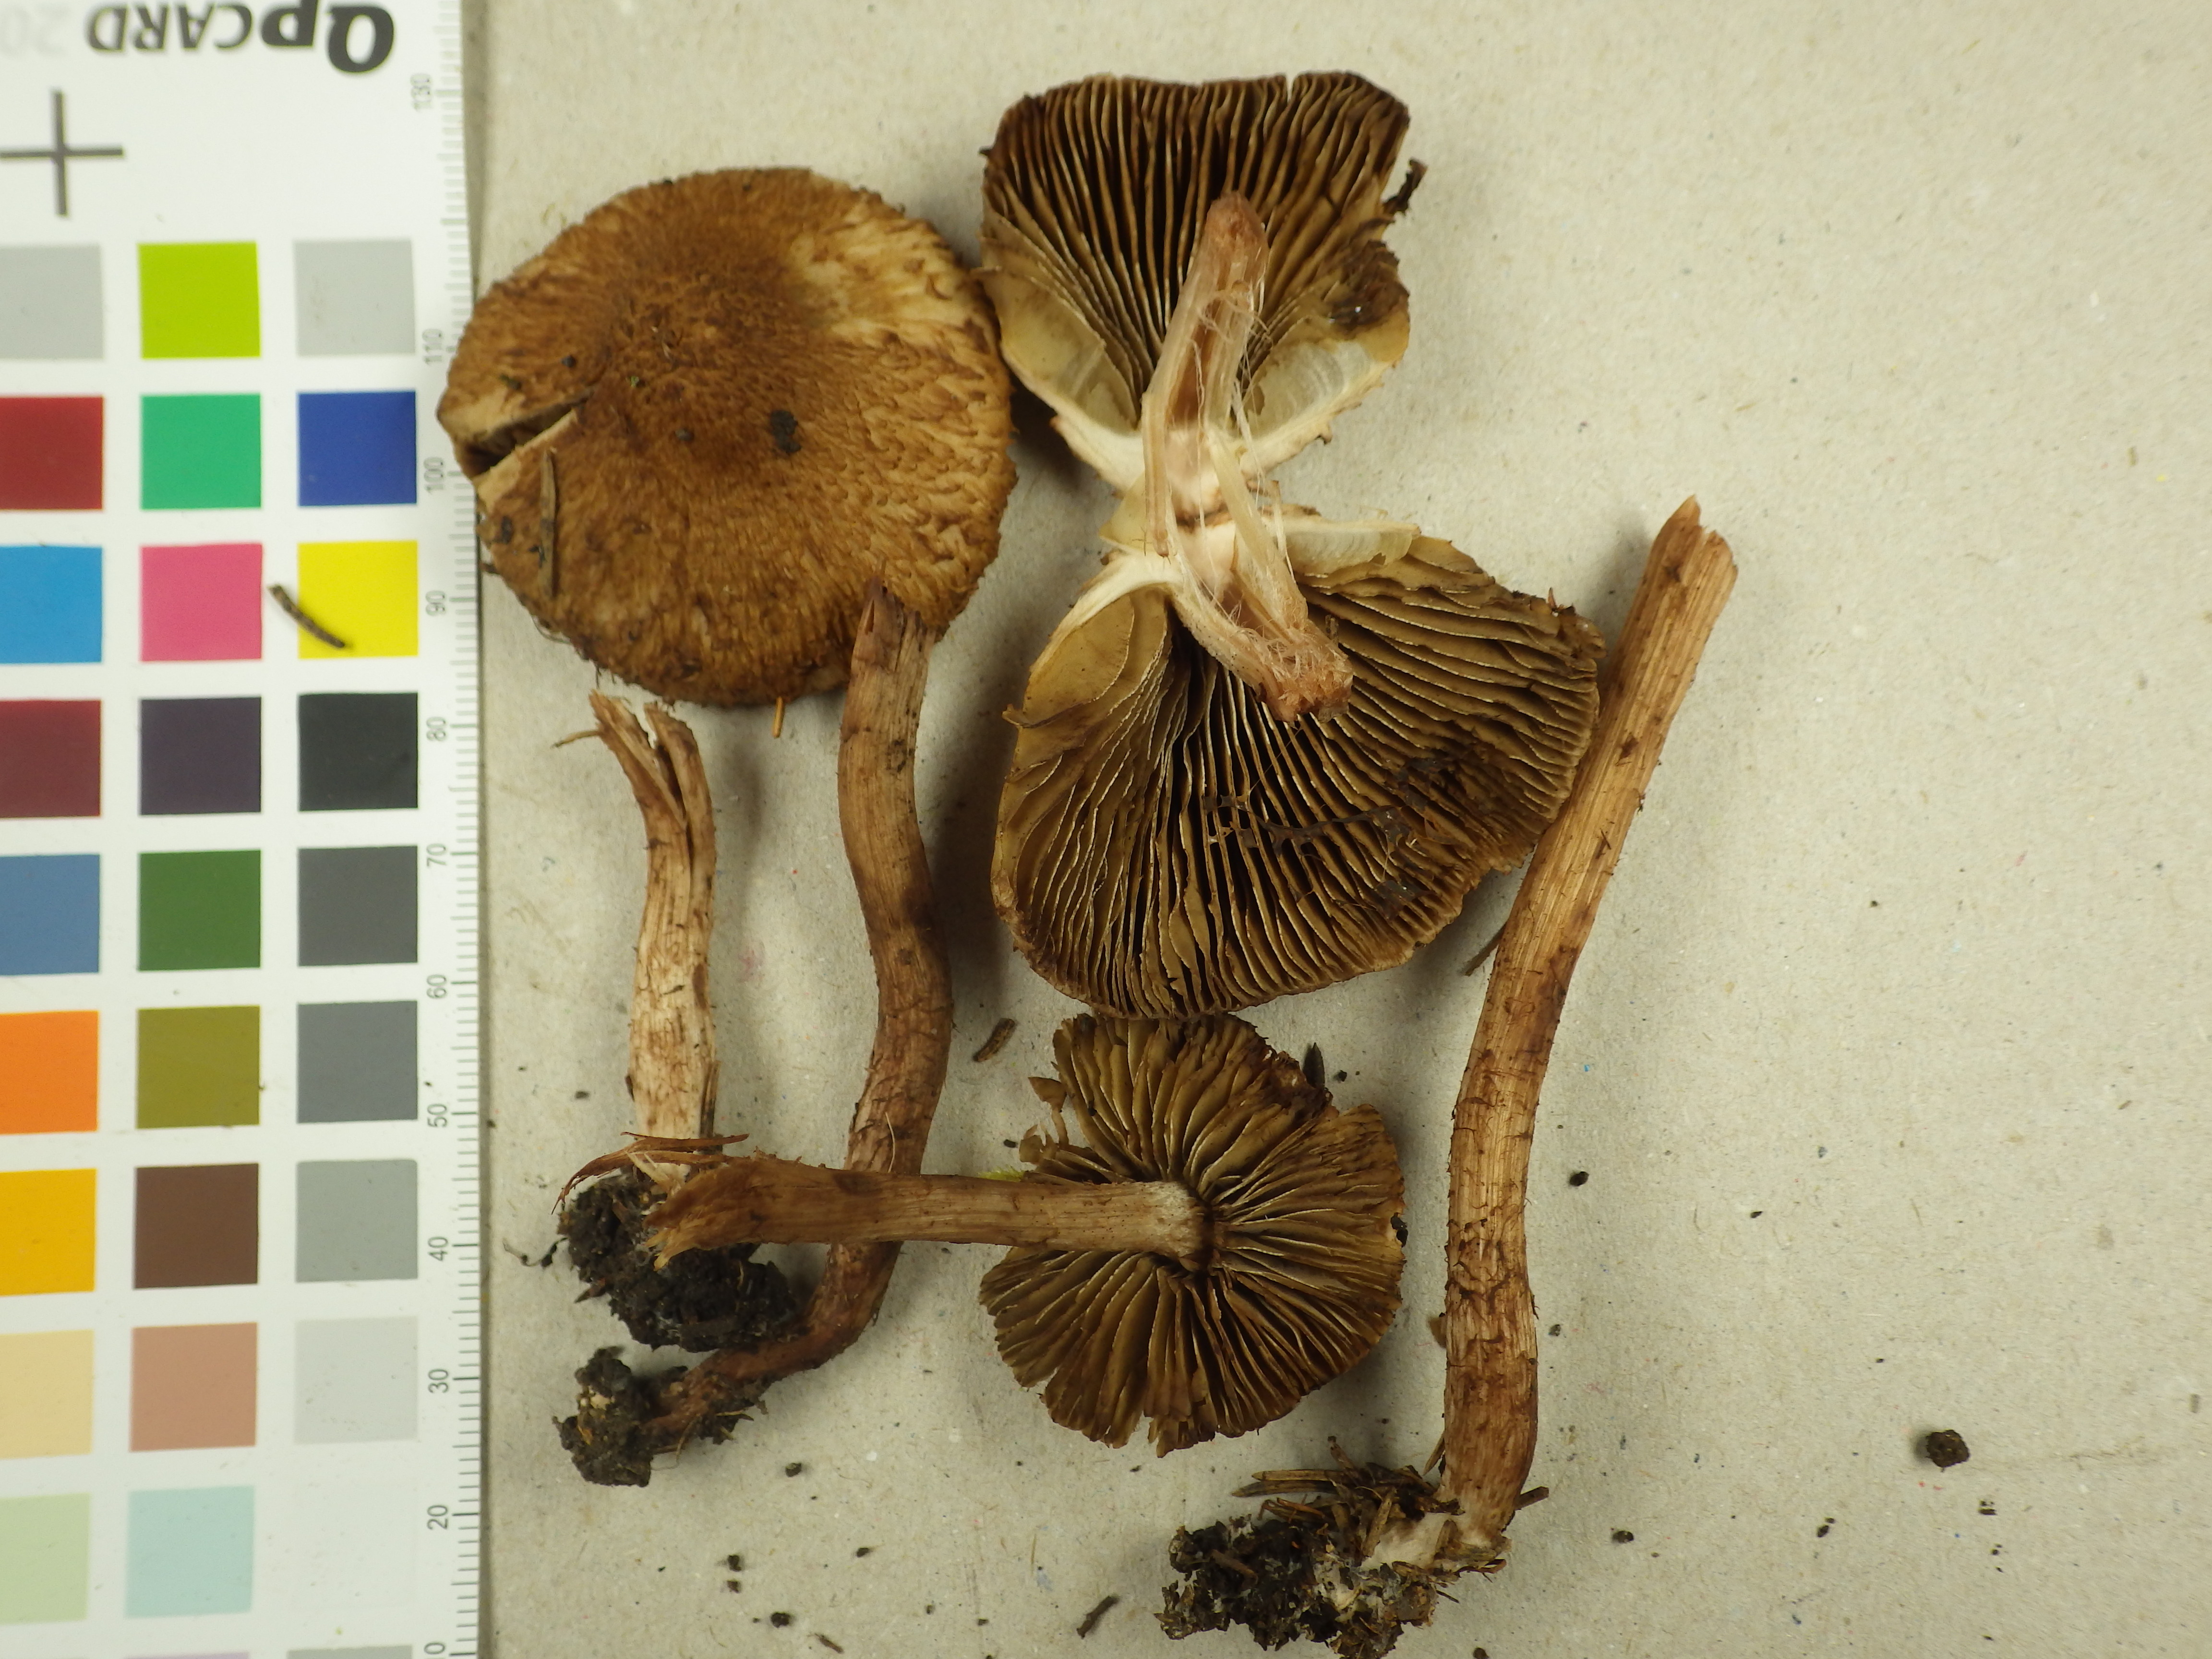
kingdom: Fungi
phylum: Basidiomycota
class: Agaricomycetes
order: Agaricales
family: Inocybaceae
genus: Inosperma
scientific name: Inosperma cervicolor
